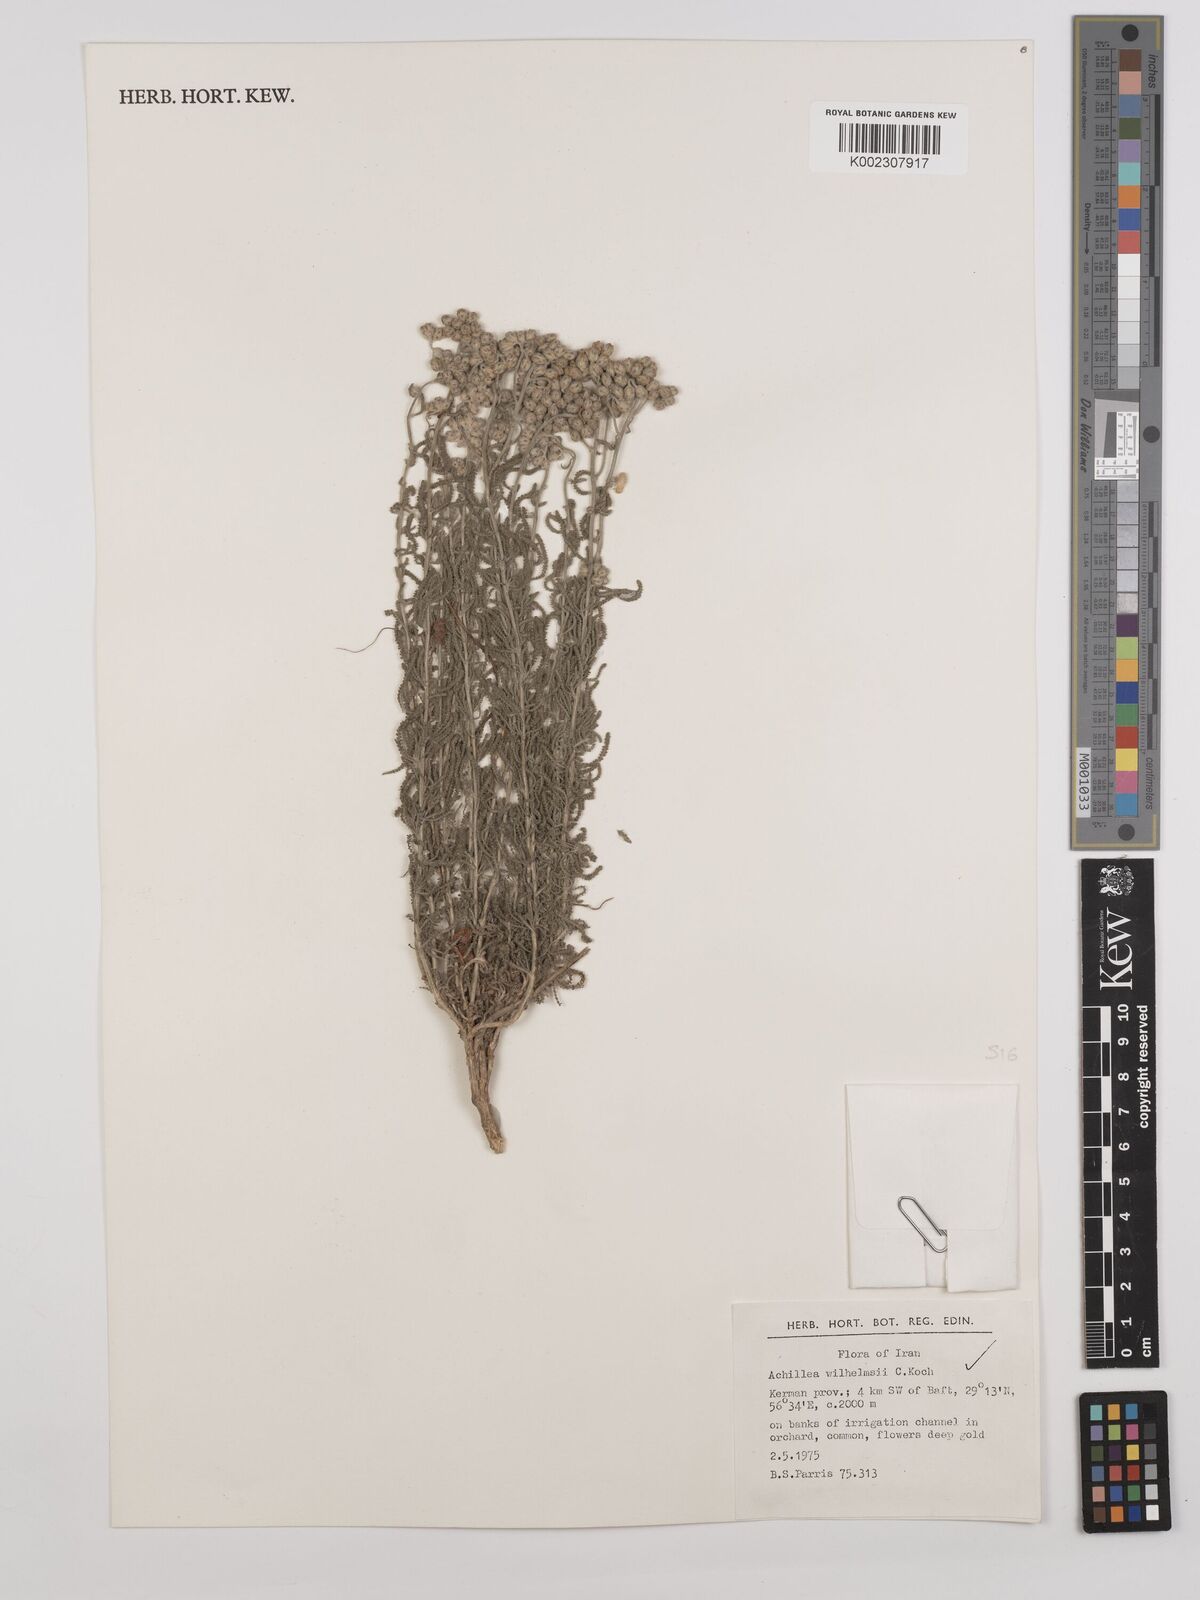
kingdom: Plantae
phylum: Tracheophyta
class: Magnoliopsida
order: Asterales
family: Asteraceae
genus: Achillea
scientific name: Achillea wilhelmsii
